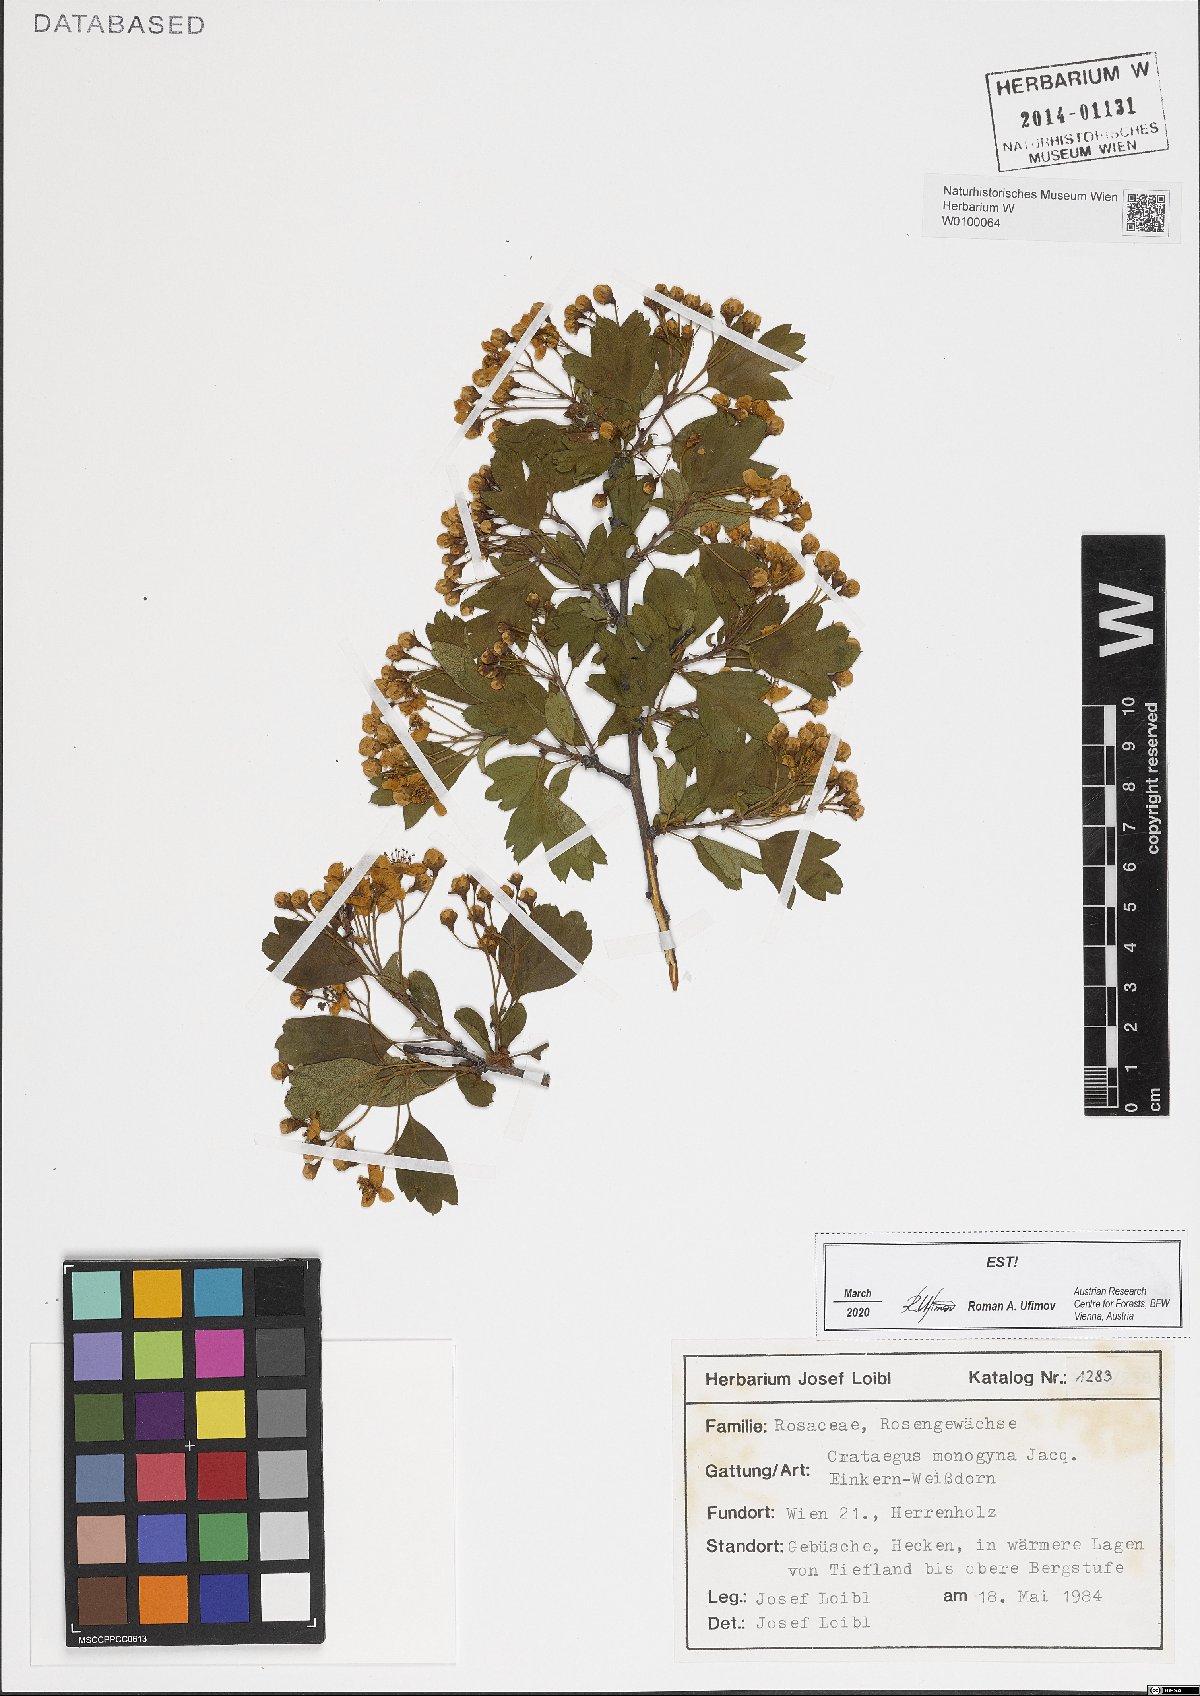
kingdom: Plantae
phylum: Tracheophyta
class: Magnoliopsida
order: Rosales
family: Rosaceae
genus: Crataegus
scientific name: Crataegus monogyna
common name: Hawthorn
